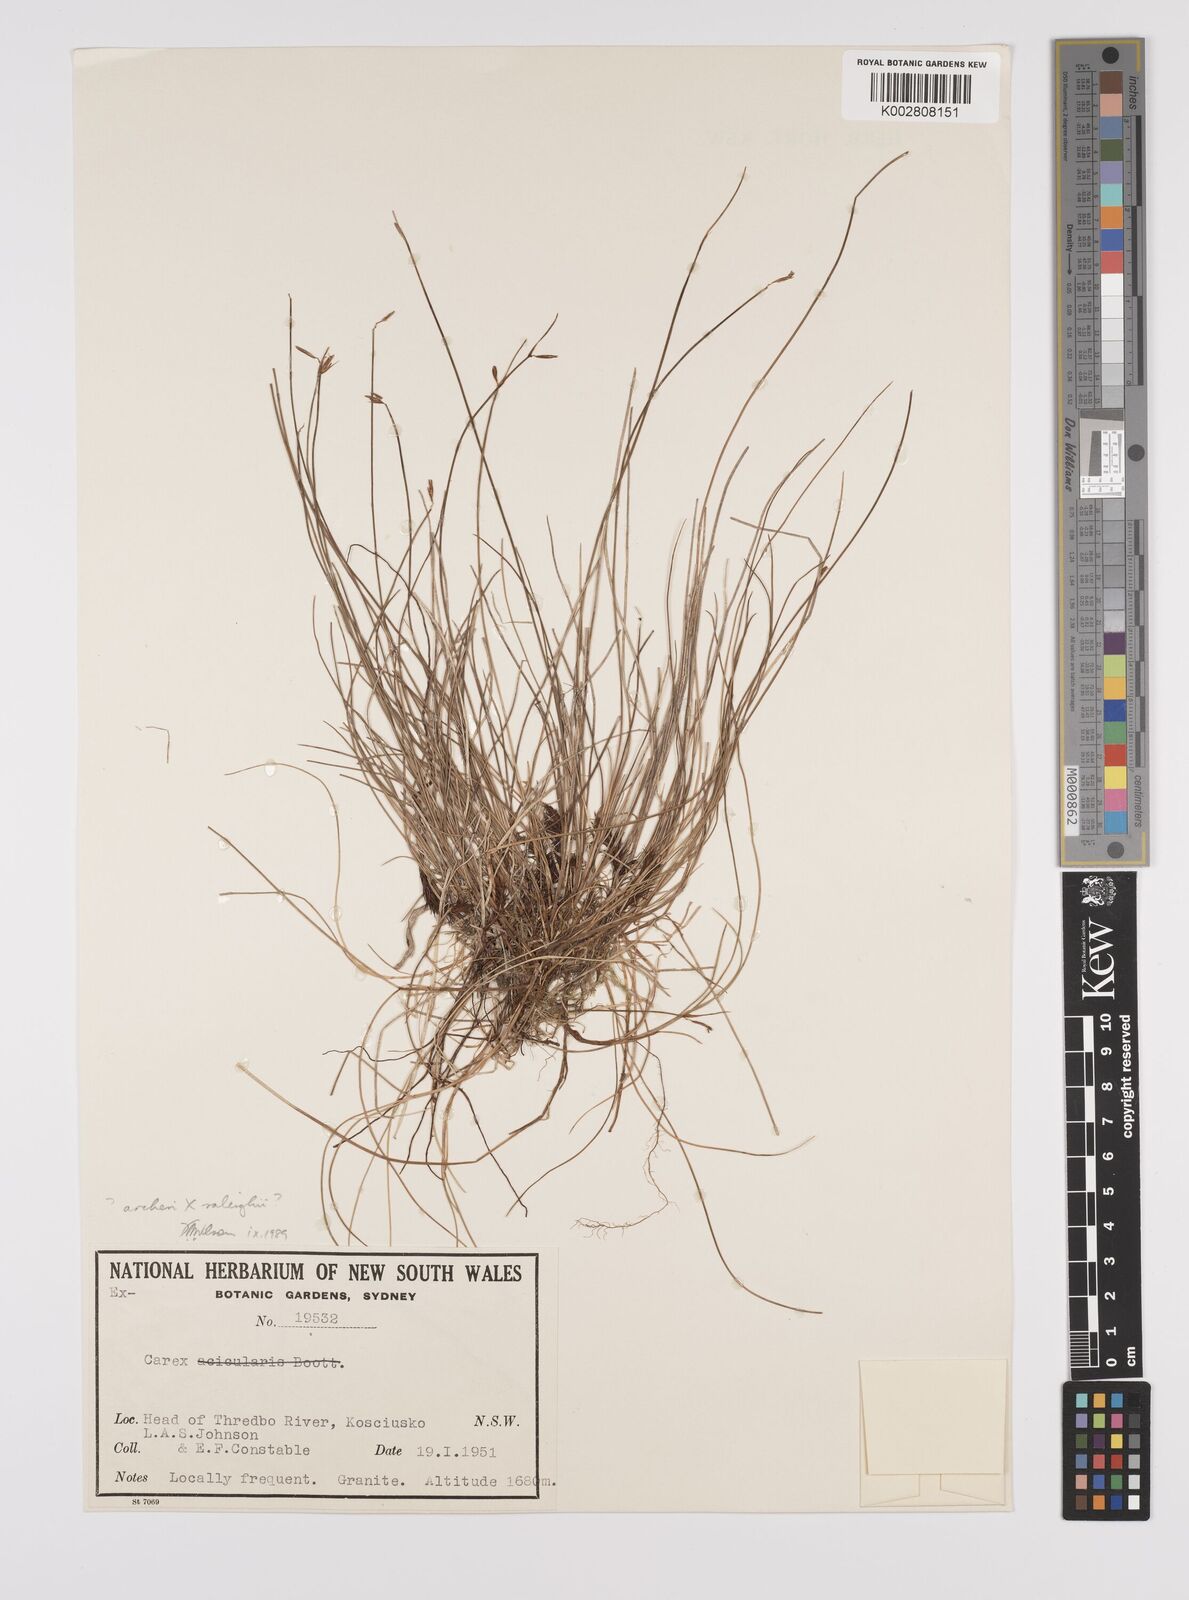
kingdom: Plantae
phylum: Tracheophyta
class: Liliopsida
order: Poales
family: Cyperaceae
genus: Carex
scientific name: Carex archeri
